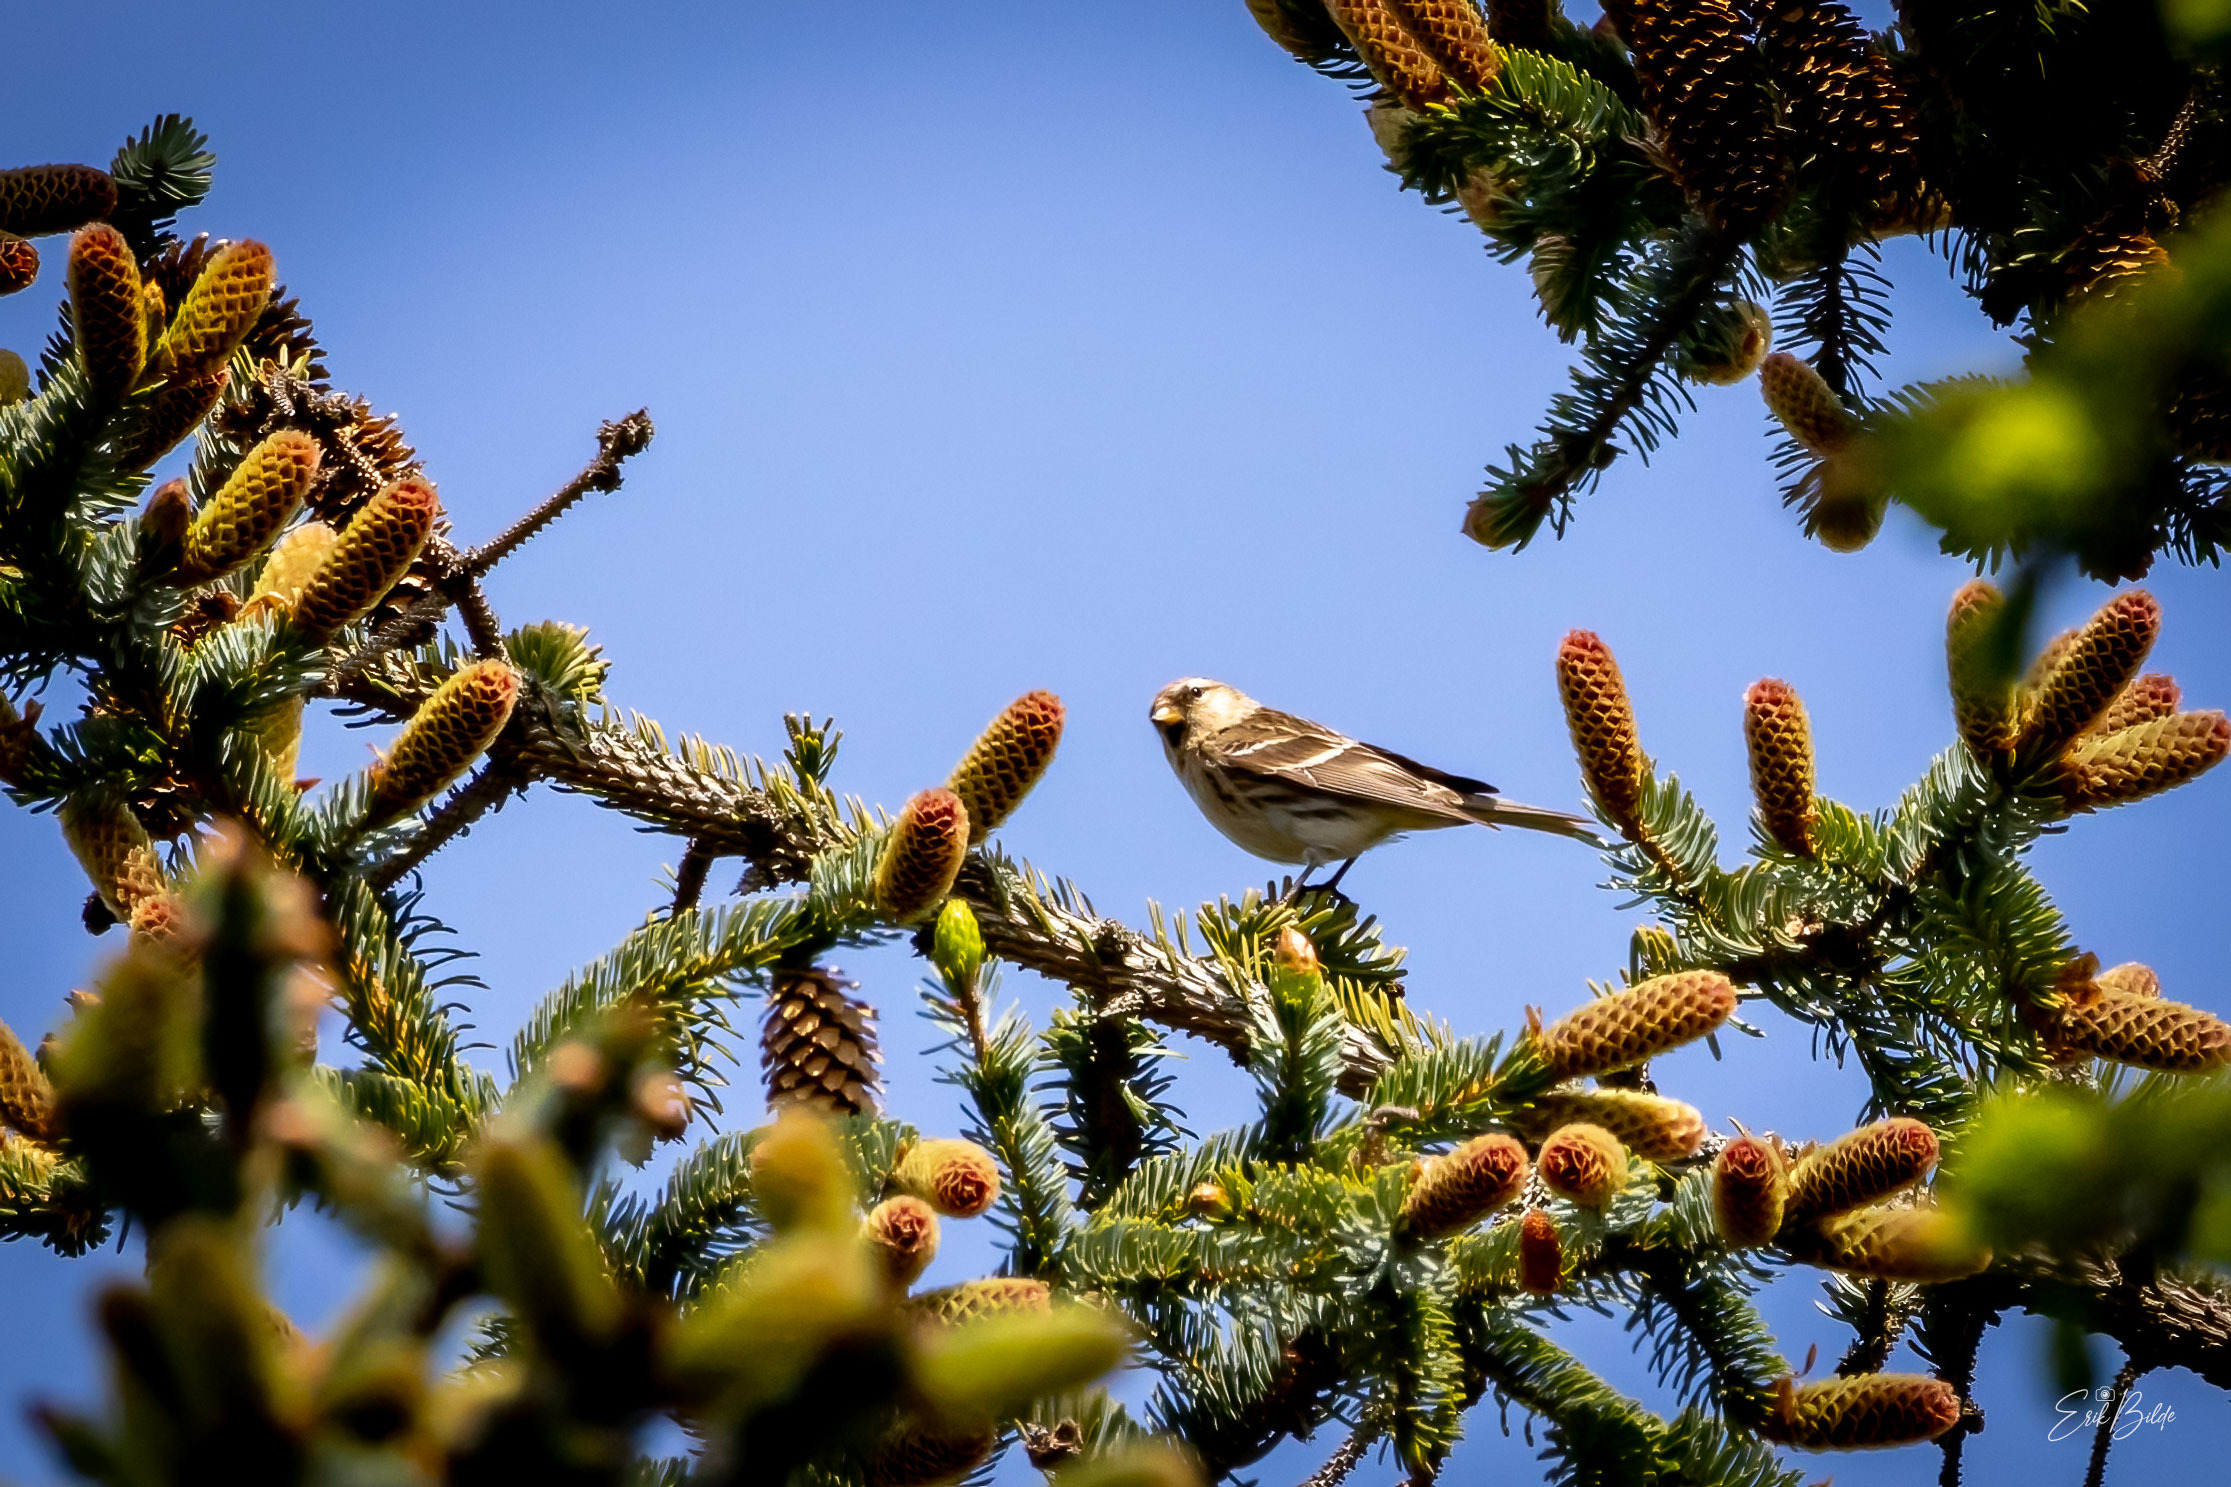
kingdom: Animalia
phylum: Chordata
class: Aves
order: Passeriformes
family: Fringillidae
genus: Acanthis
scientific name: Acanthis flammea
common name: Lille gråsisken
